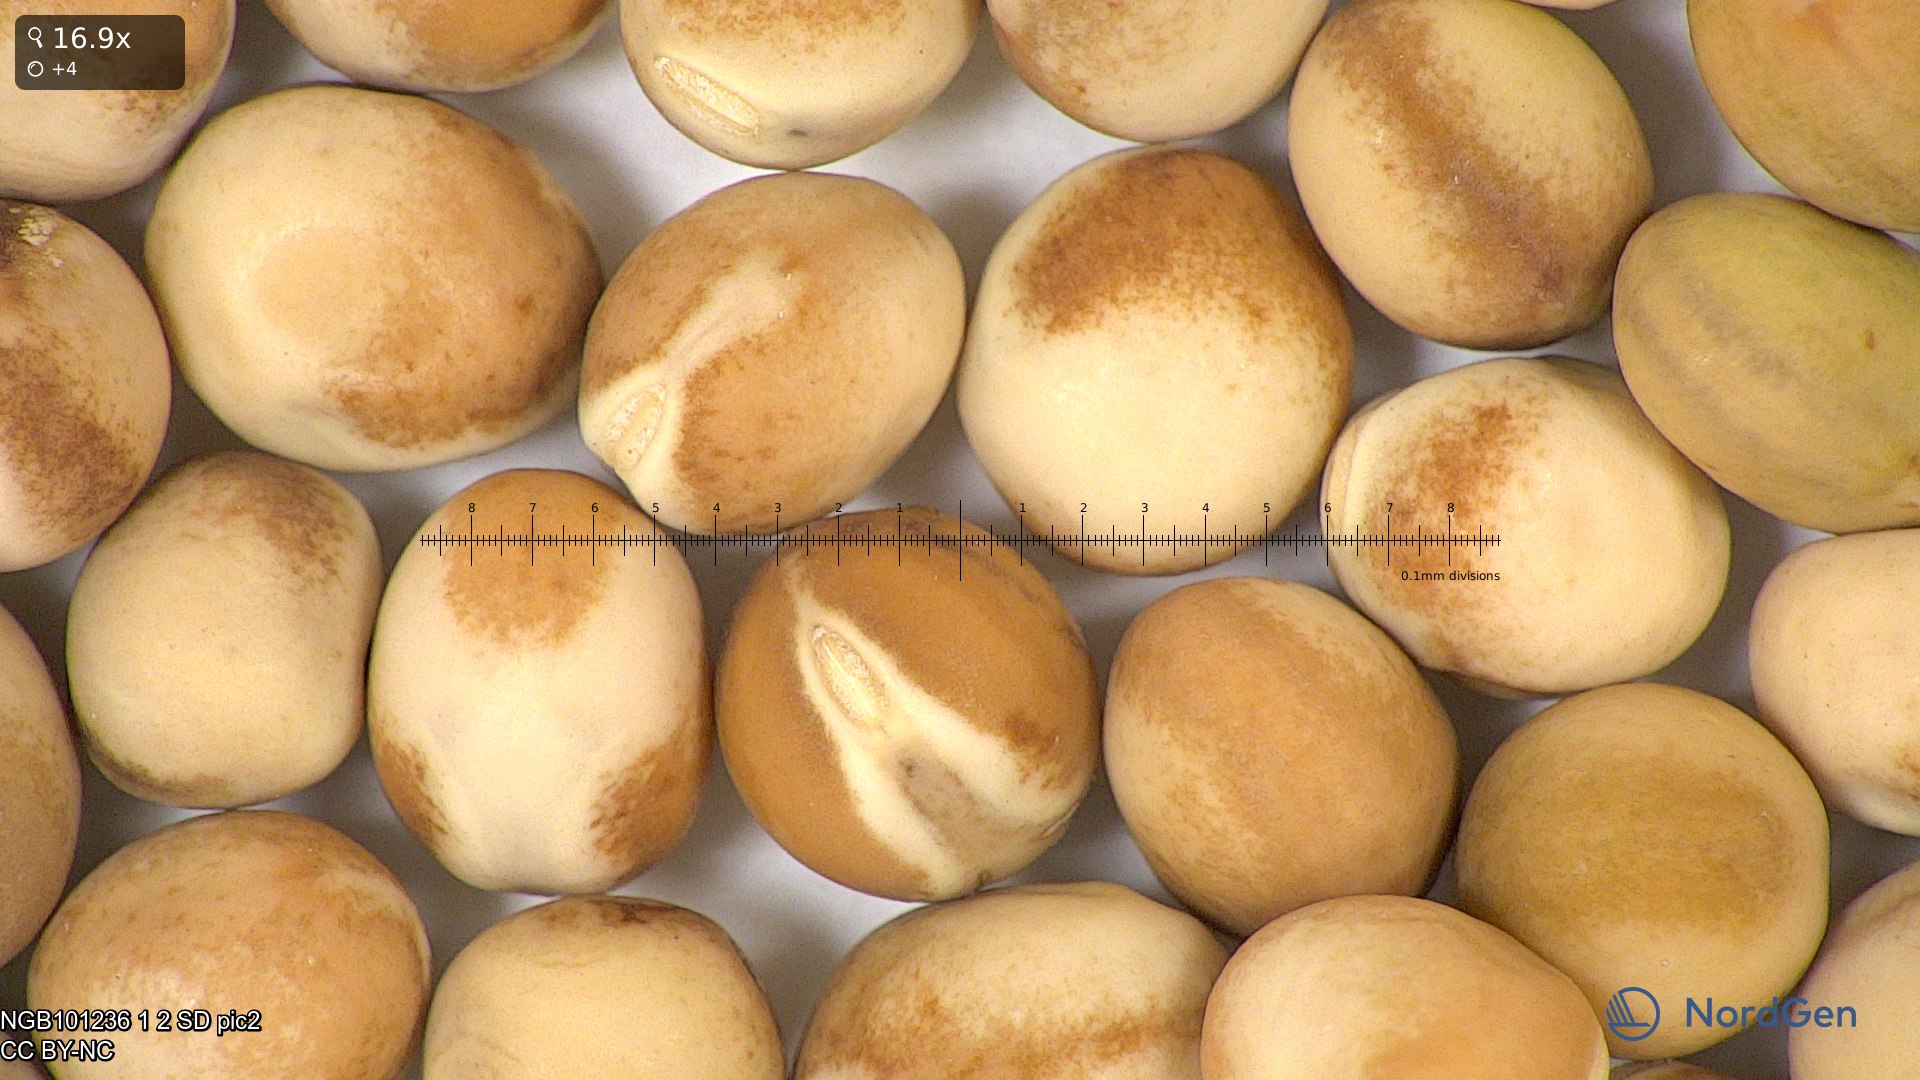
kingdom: Plantae
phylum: Tracheophyta
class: Magnoliopsida
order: Fabales
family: Fabaceae
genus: Lathyrus
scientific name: Lathyrus oleraceus
